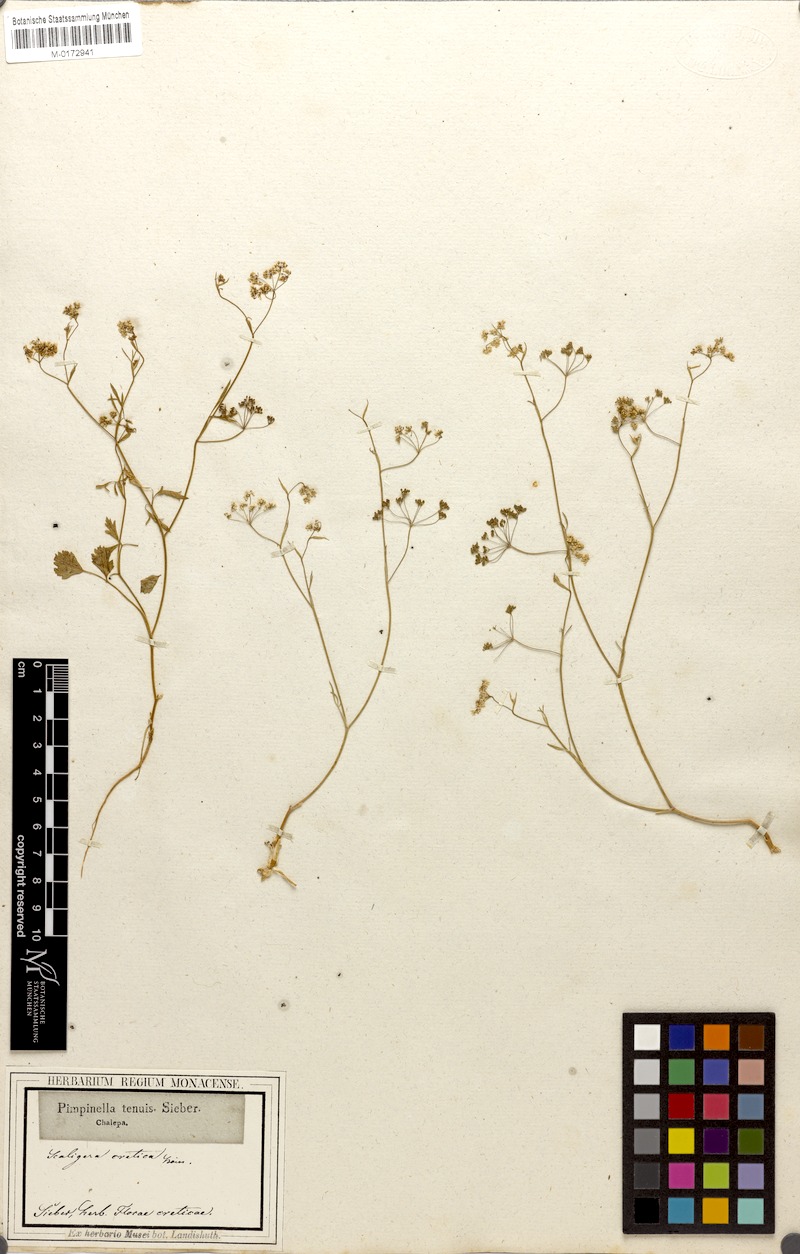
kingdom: Plantae
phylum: Tracheophyta
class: Magnoliopsida
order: Apiales
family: Apiaceae
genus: Pimpinella
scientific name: Pimpinella cretica
